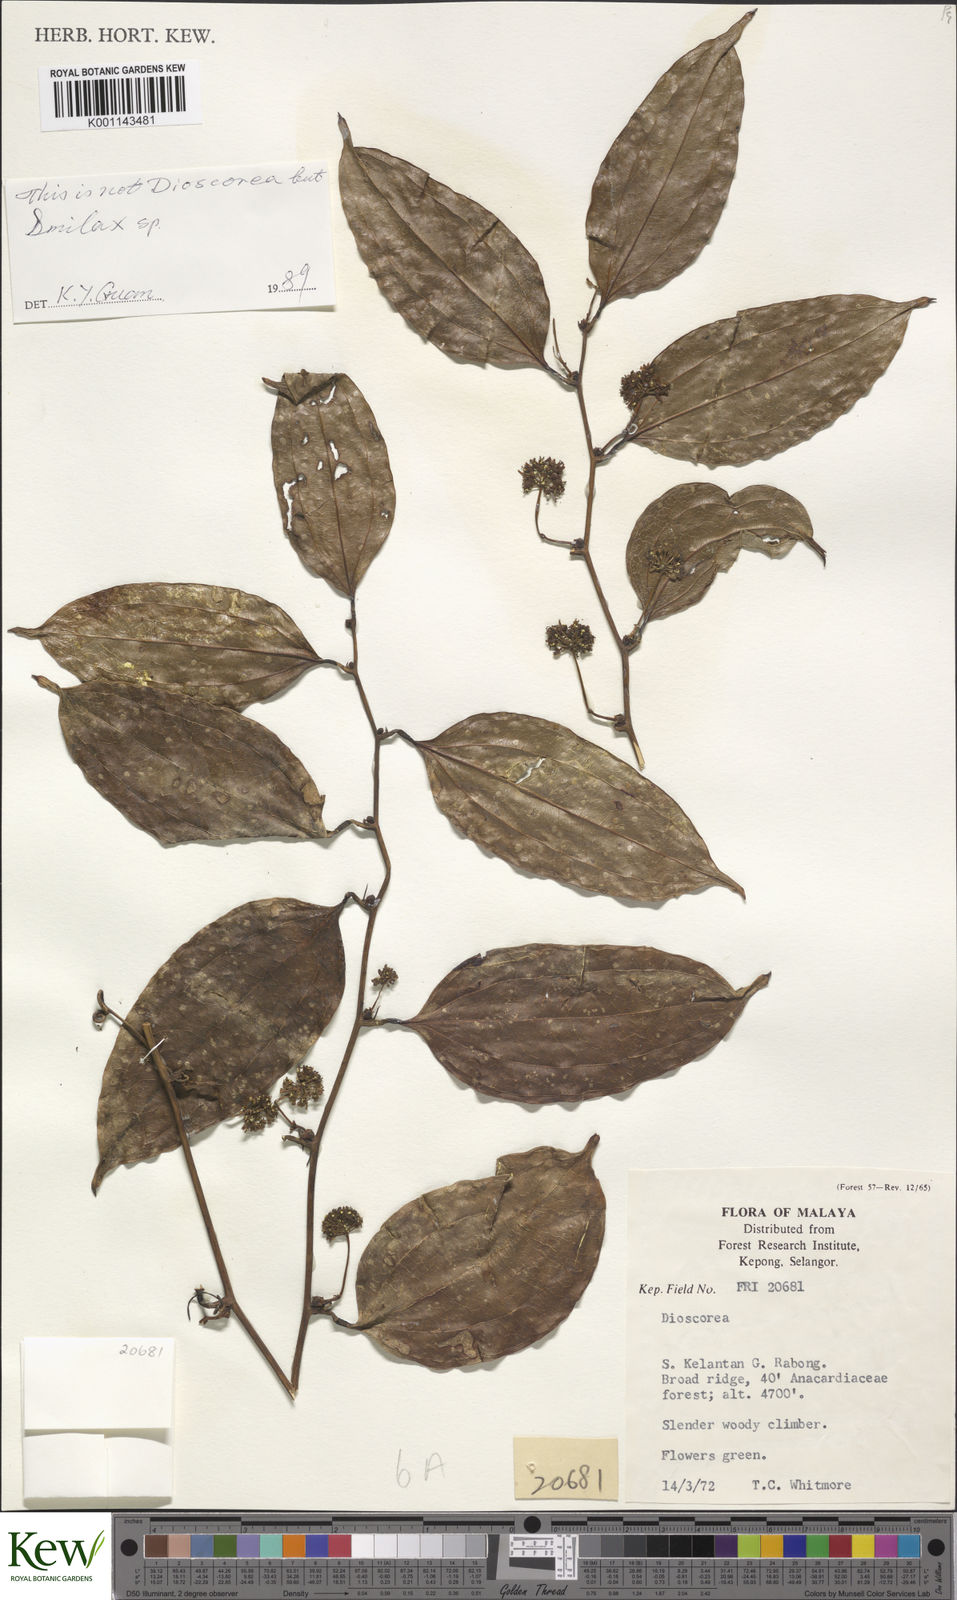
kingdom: Plantae
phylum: Tracheophyta
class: Liliopsida
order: Dioscoreales
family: Dioscoreaceae
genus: Dioscorea
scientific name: Dioscorea
